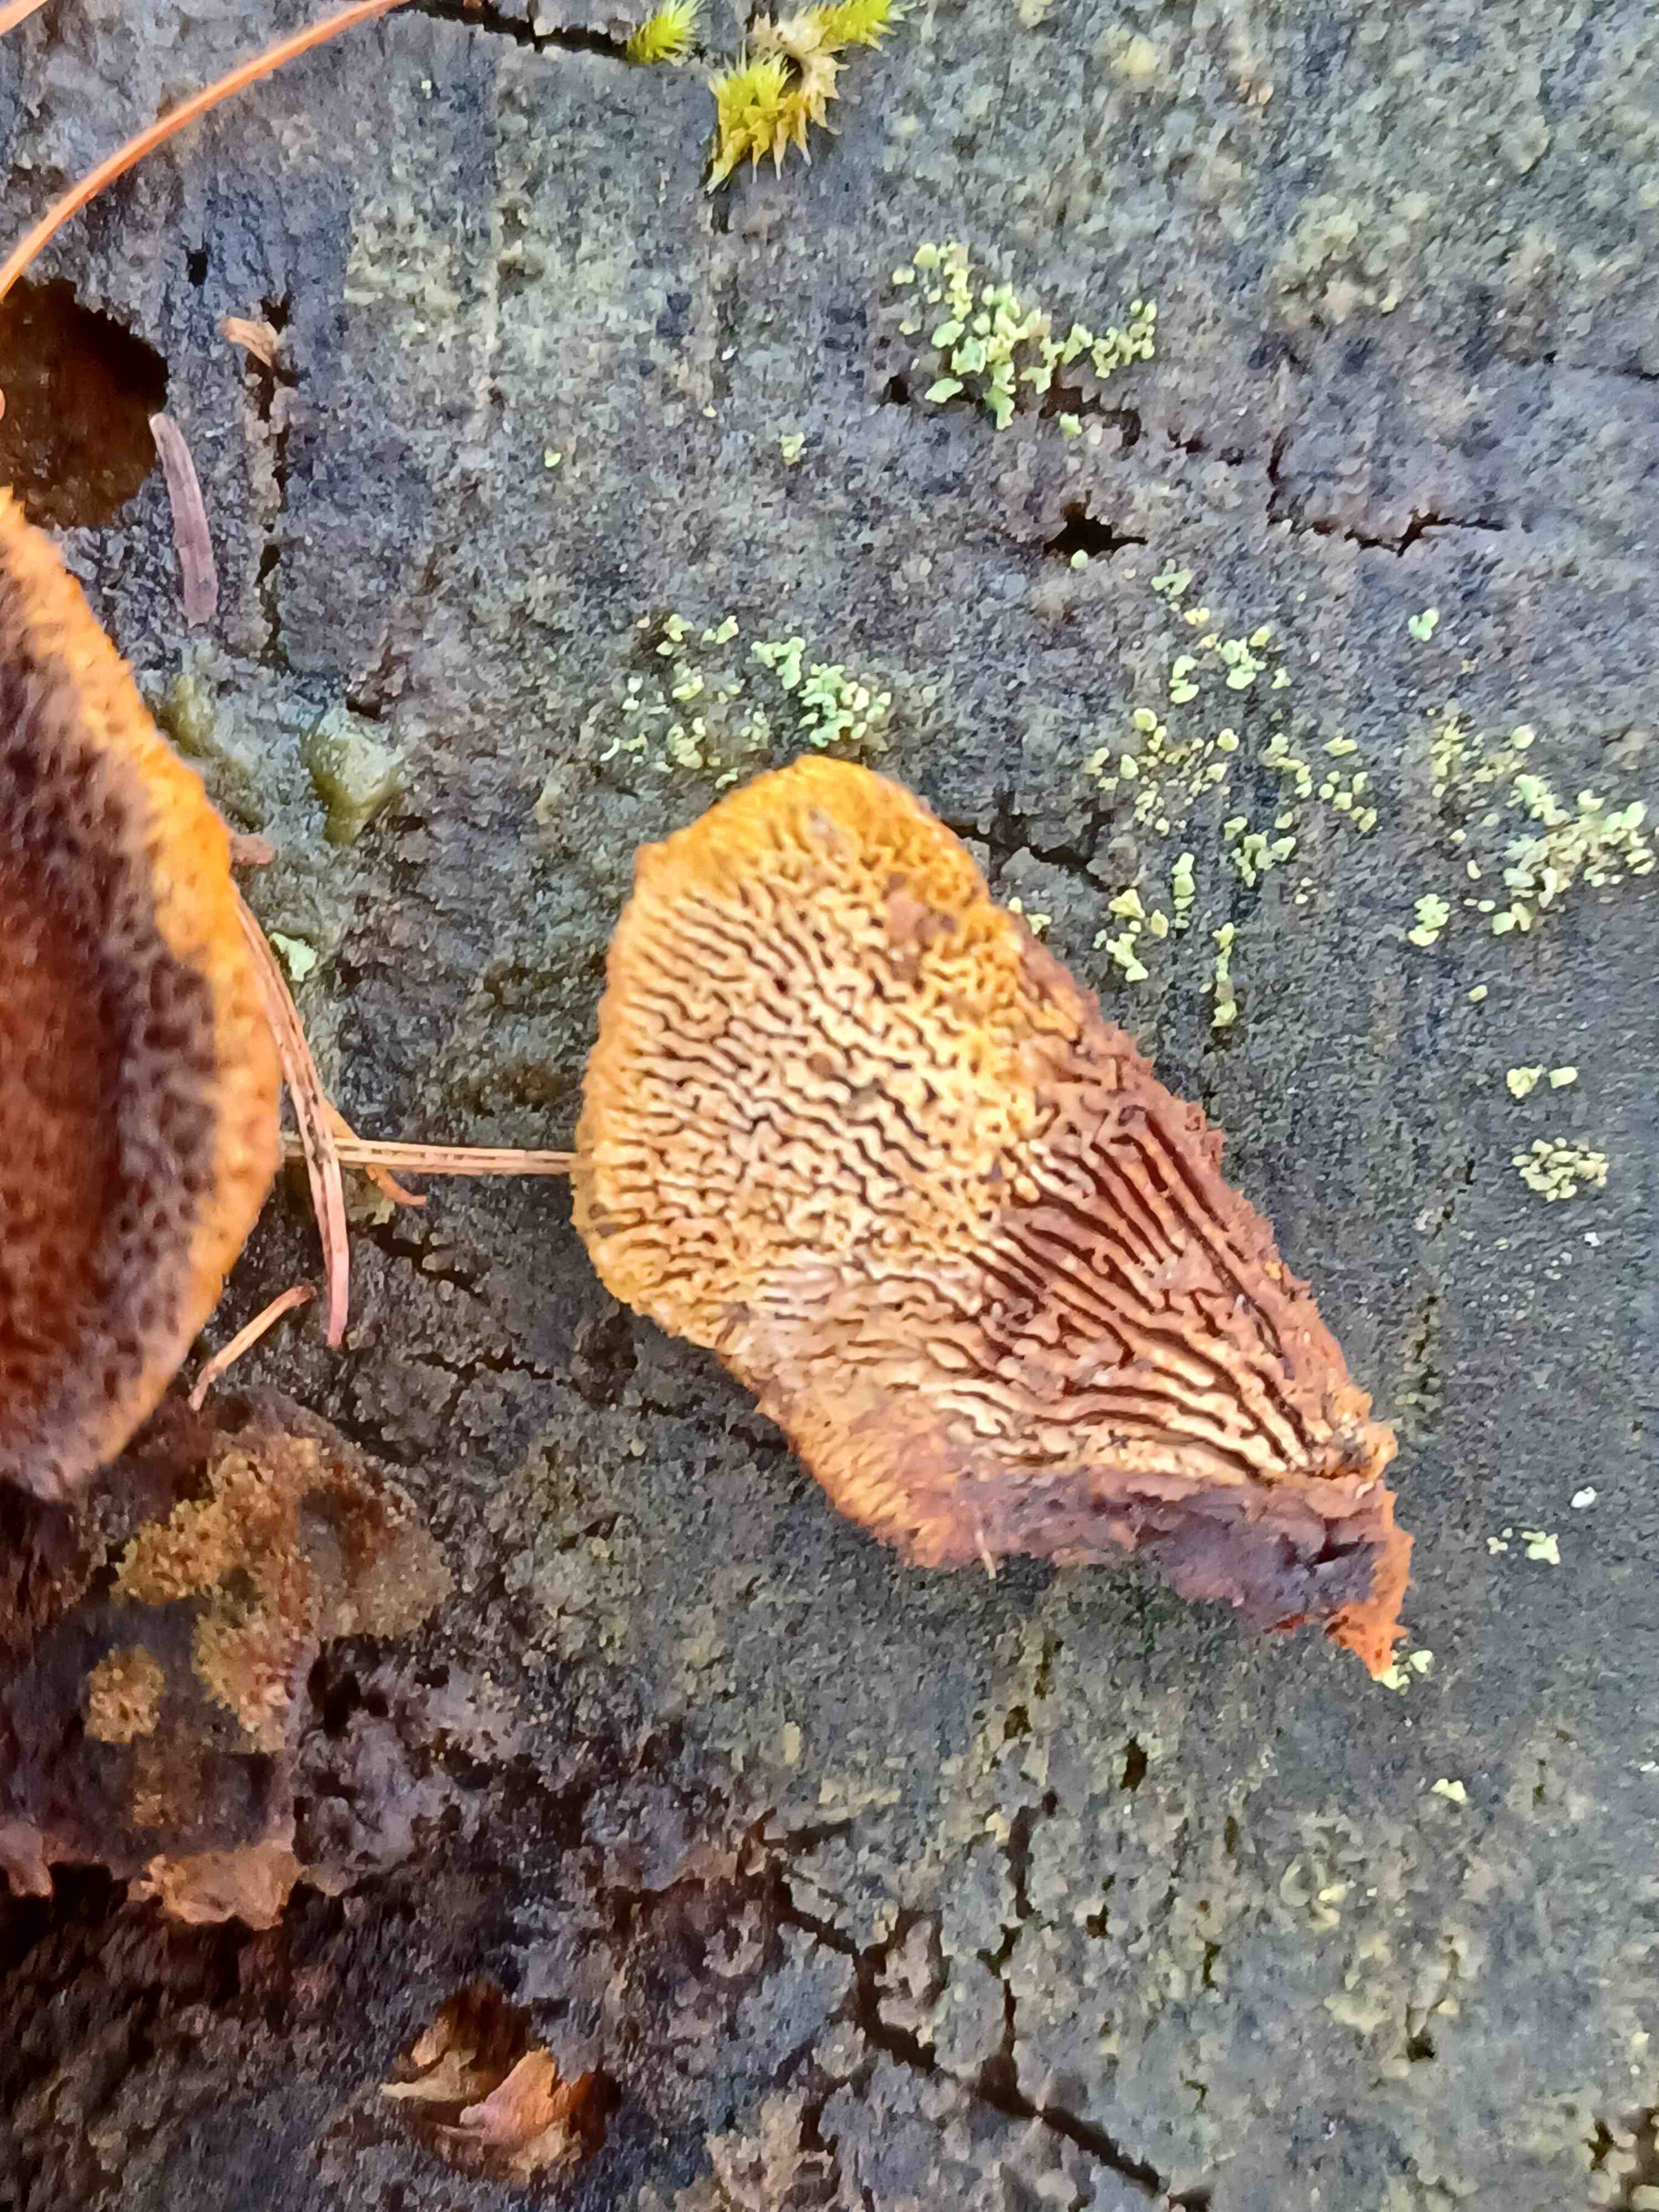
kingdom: Fungi
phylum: Basidiomycota
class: Agaricomycetes
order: Gloeophyllales
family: Gloeophyllaceae
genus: Gloeophyllum
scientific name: Gloeophyllum sepiarium
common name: fyrre-korkhat
